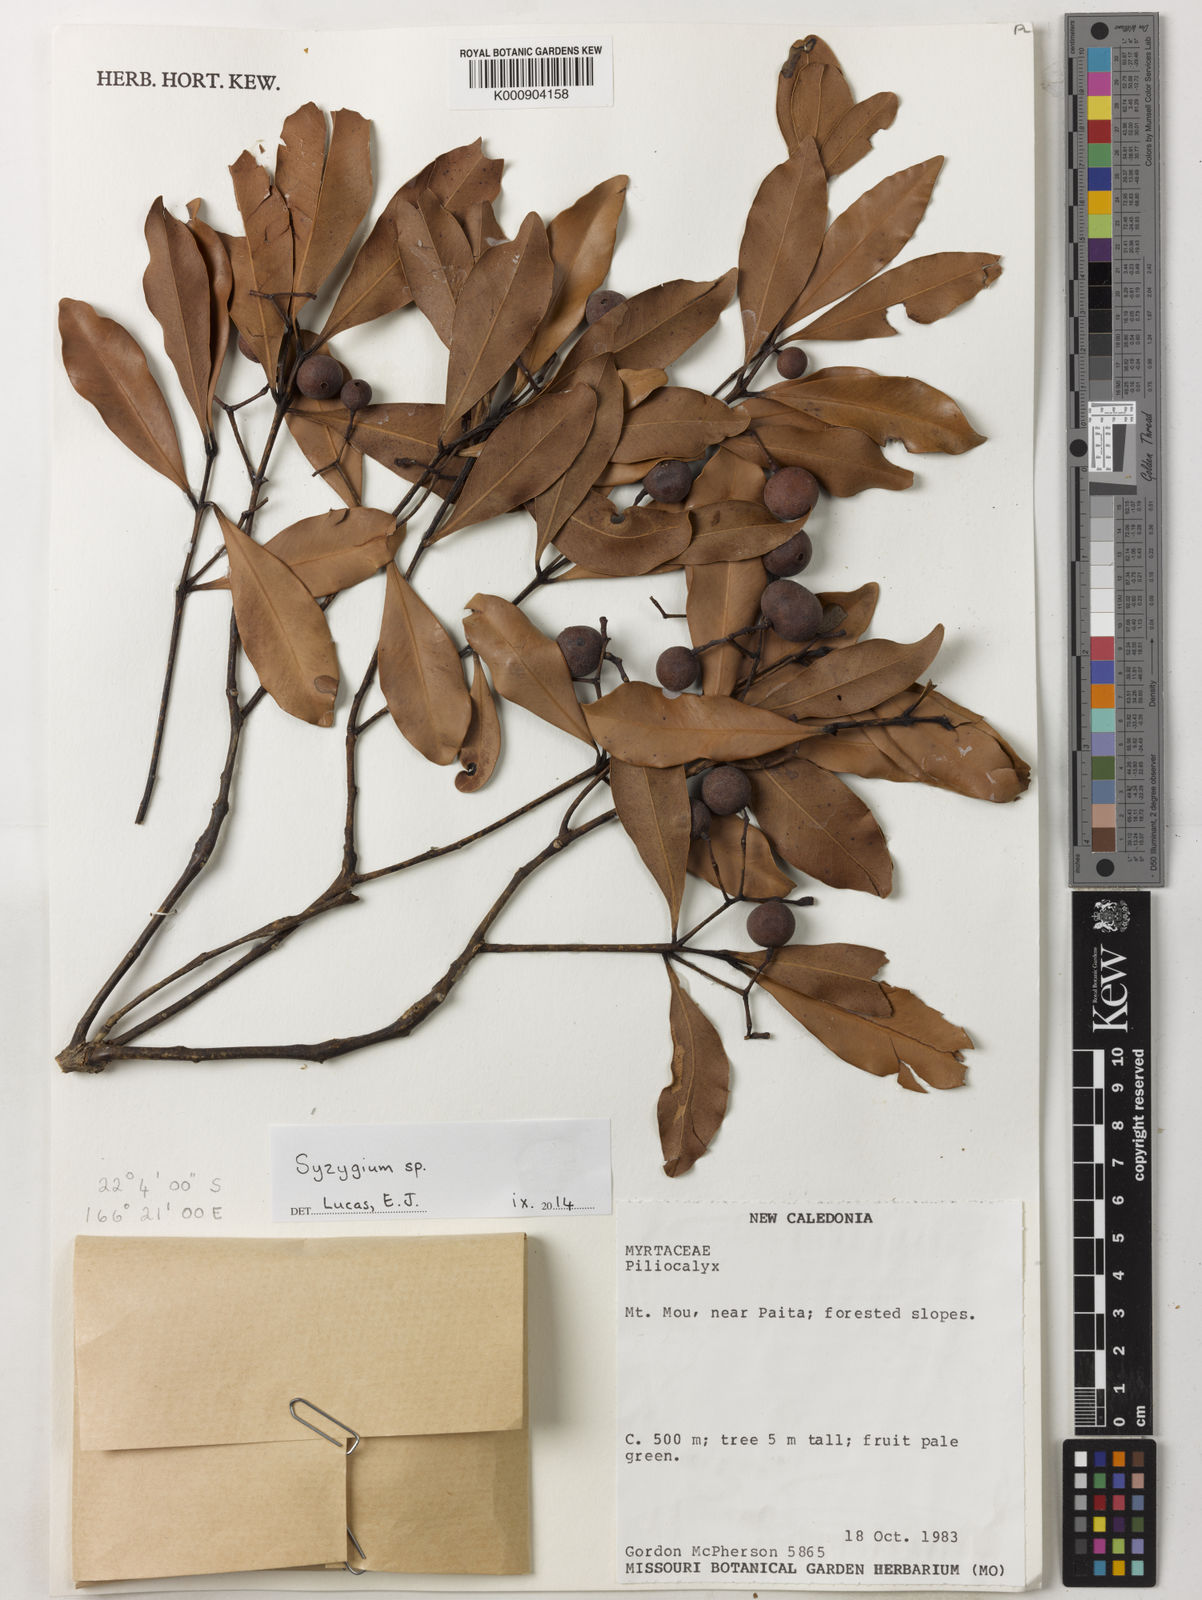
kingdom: Plantae
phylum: Tracheophyta
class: Magnoliopsida
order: Myrtales
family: Myrtaceae
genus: Syzygium
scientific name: Syzygium
